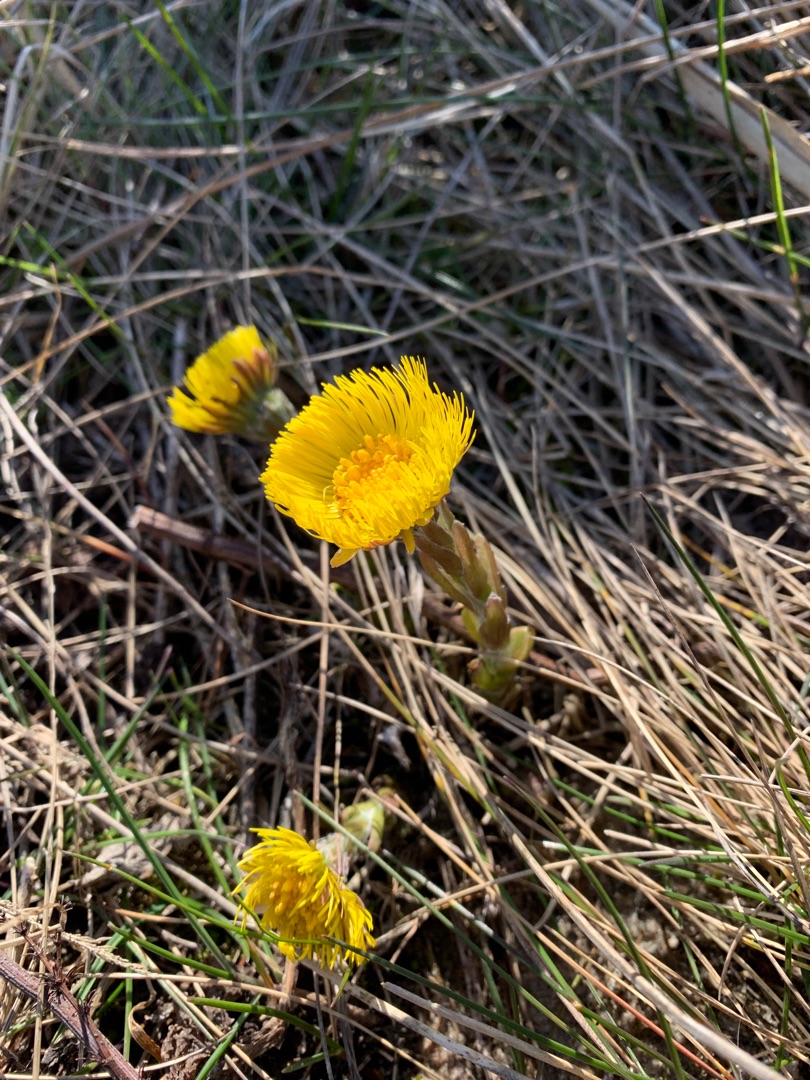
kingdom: Plantae
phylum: Tracheophyta
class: Magnoliopsida
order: Asterales
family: Asteraceae
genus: Tussilago
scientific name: Tussilago farfara
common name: Følfod
